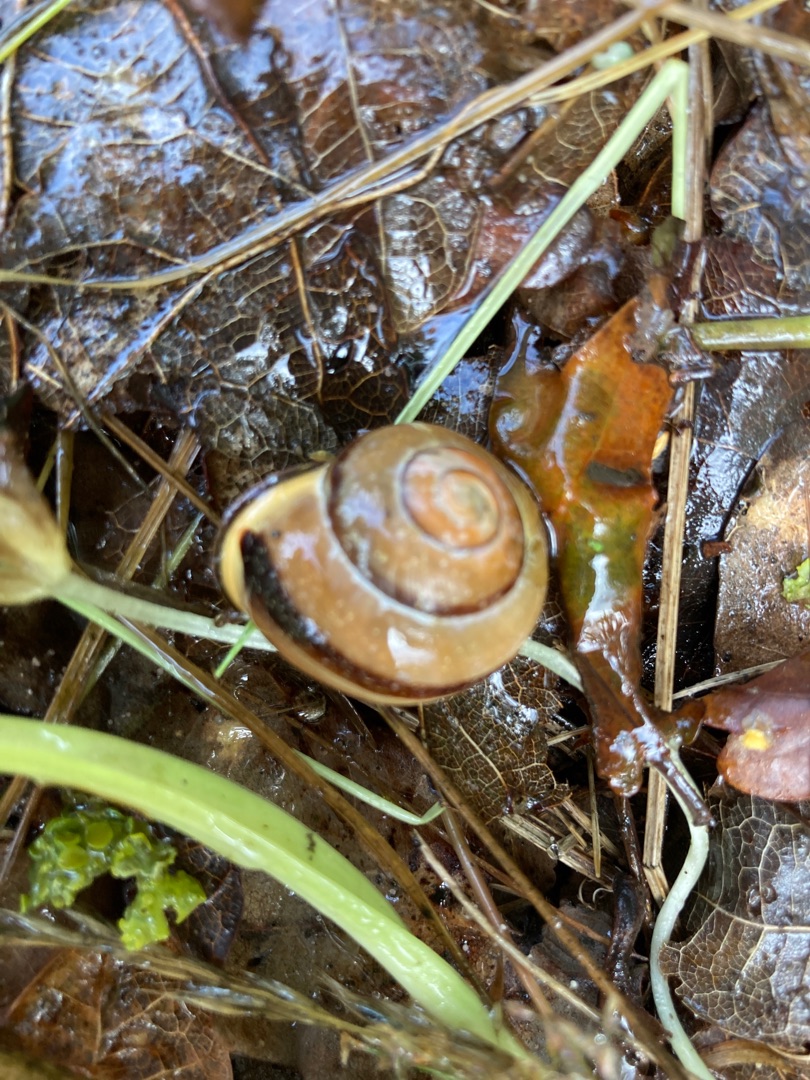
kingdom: Animalia
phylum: Mollusca
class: Gastropoda
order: Stylommatophora
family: Helicidae
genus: Cepaea
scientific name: Cepaea nemoralis
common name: Lundsnegl
